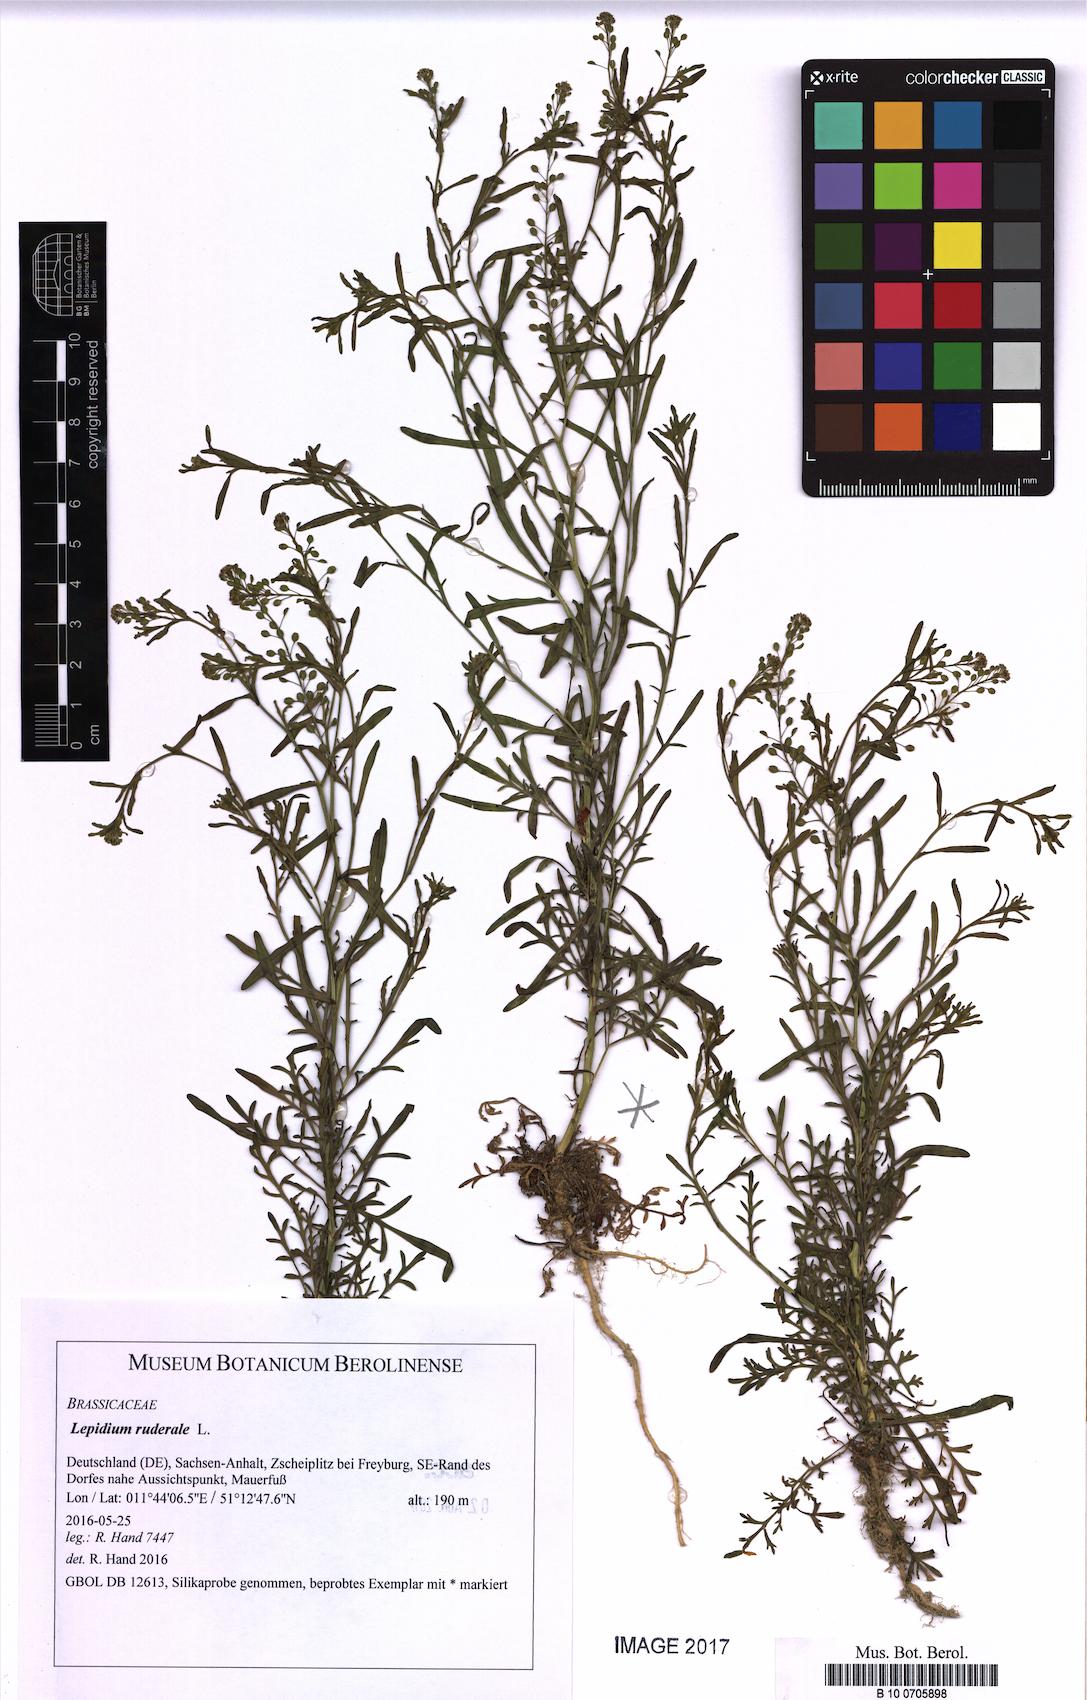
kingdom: Plantae
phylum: Tracheophyta
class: Magnoliopsida
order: Brassicales
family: Brassicaceae
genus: Lepidium
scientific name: Lepidium ruderale
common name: Narrow-leaved pepperwort
